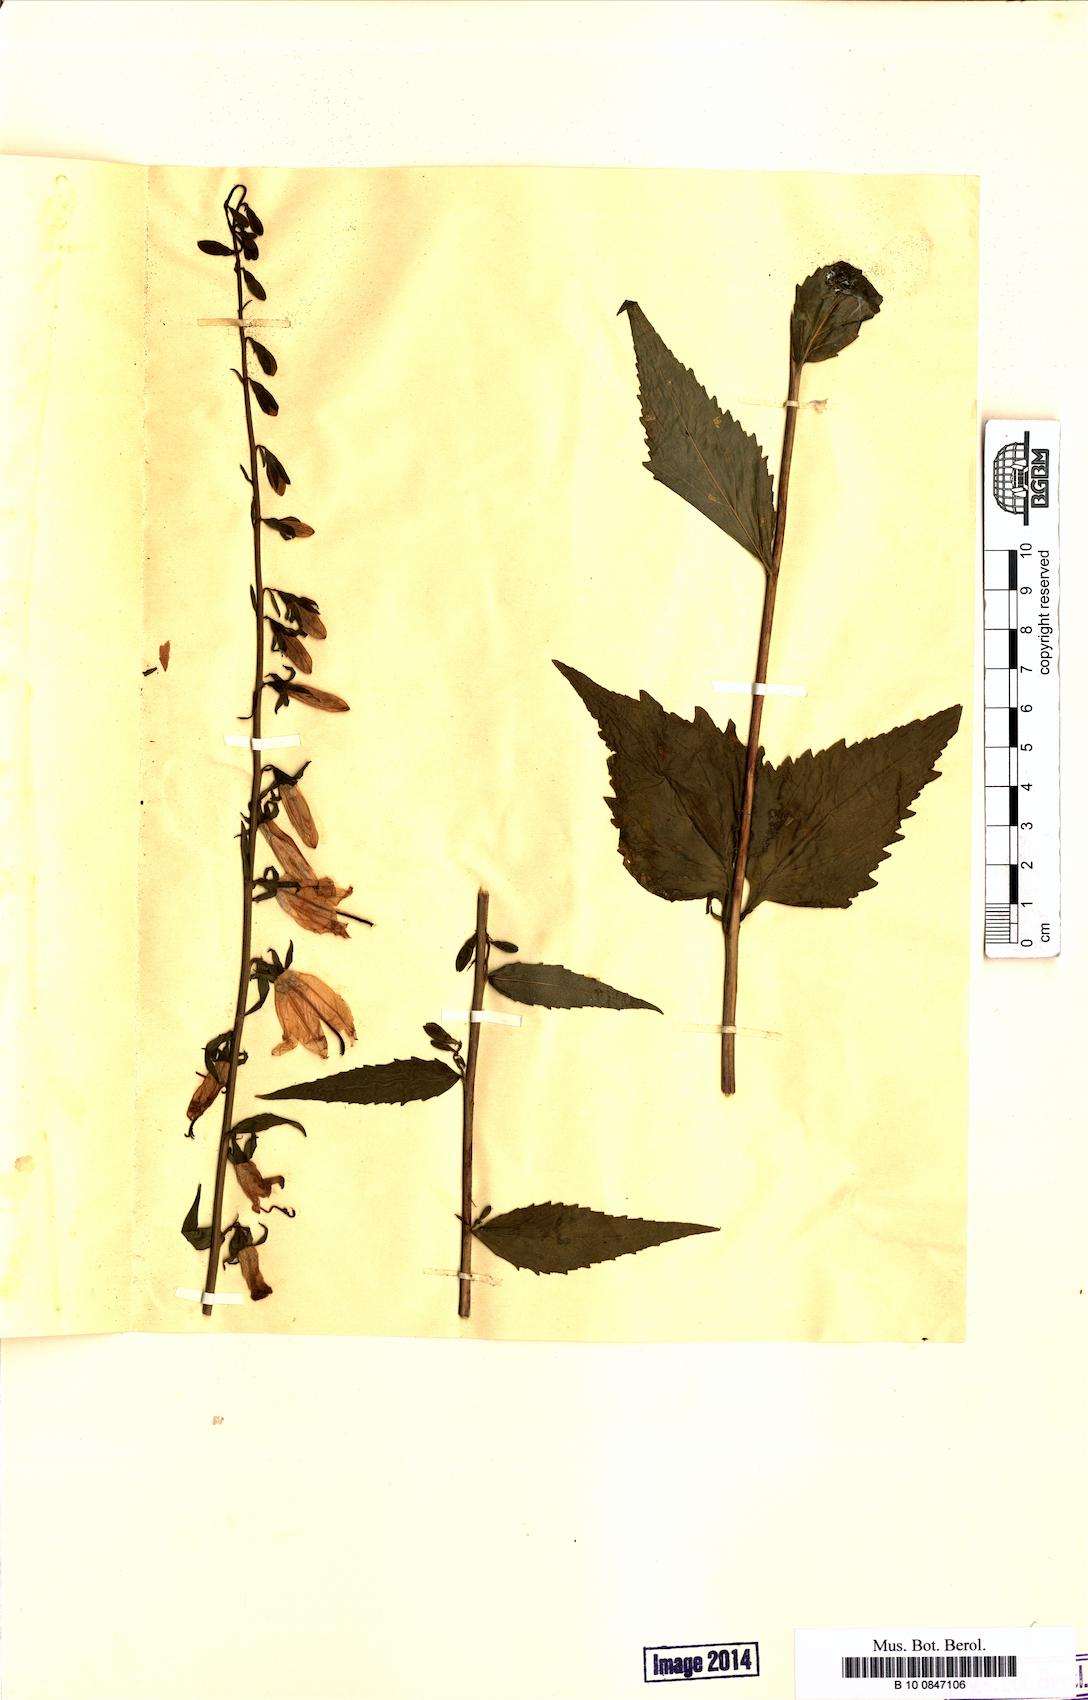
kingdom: Plantae
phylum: Tracheophyta
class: Magnoliopsida
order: Asterales
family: Campanulaceae
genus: Campanula
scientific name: Campanula rapunculoides
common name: Creeping bellflower
